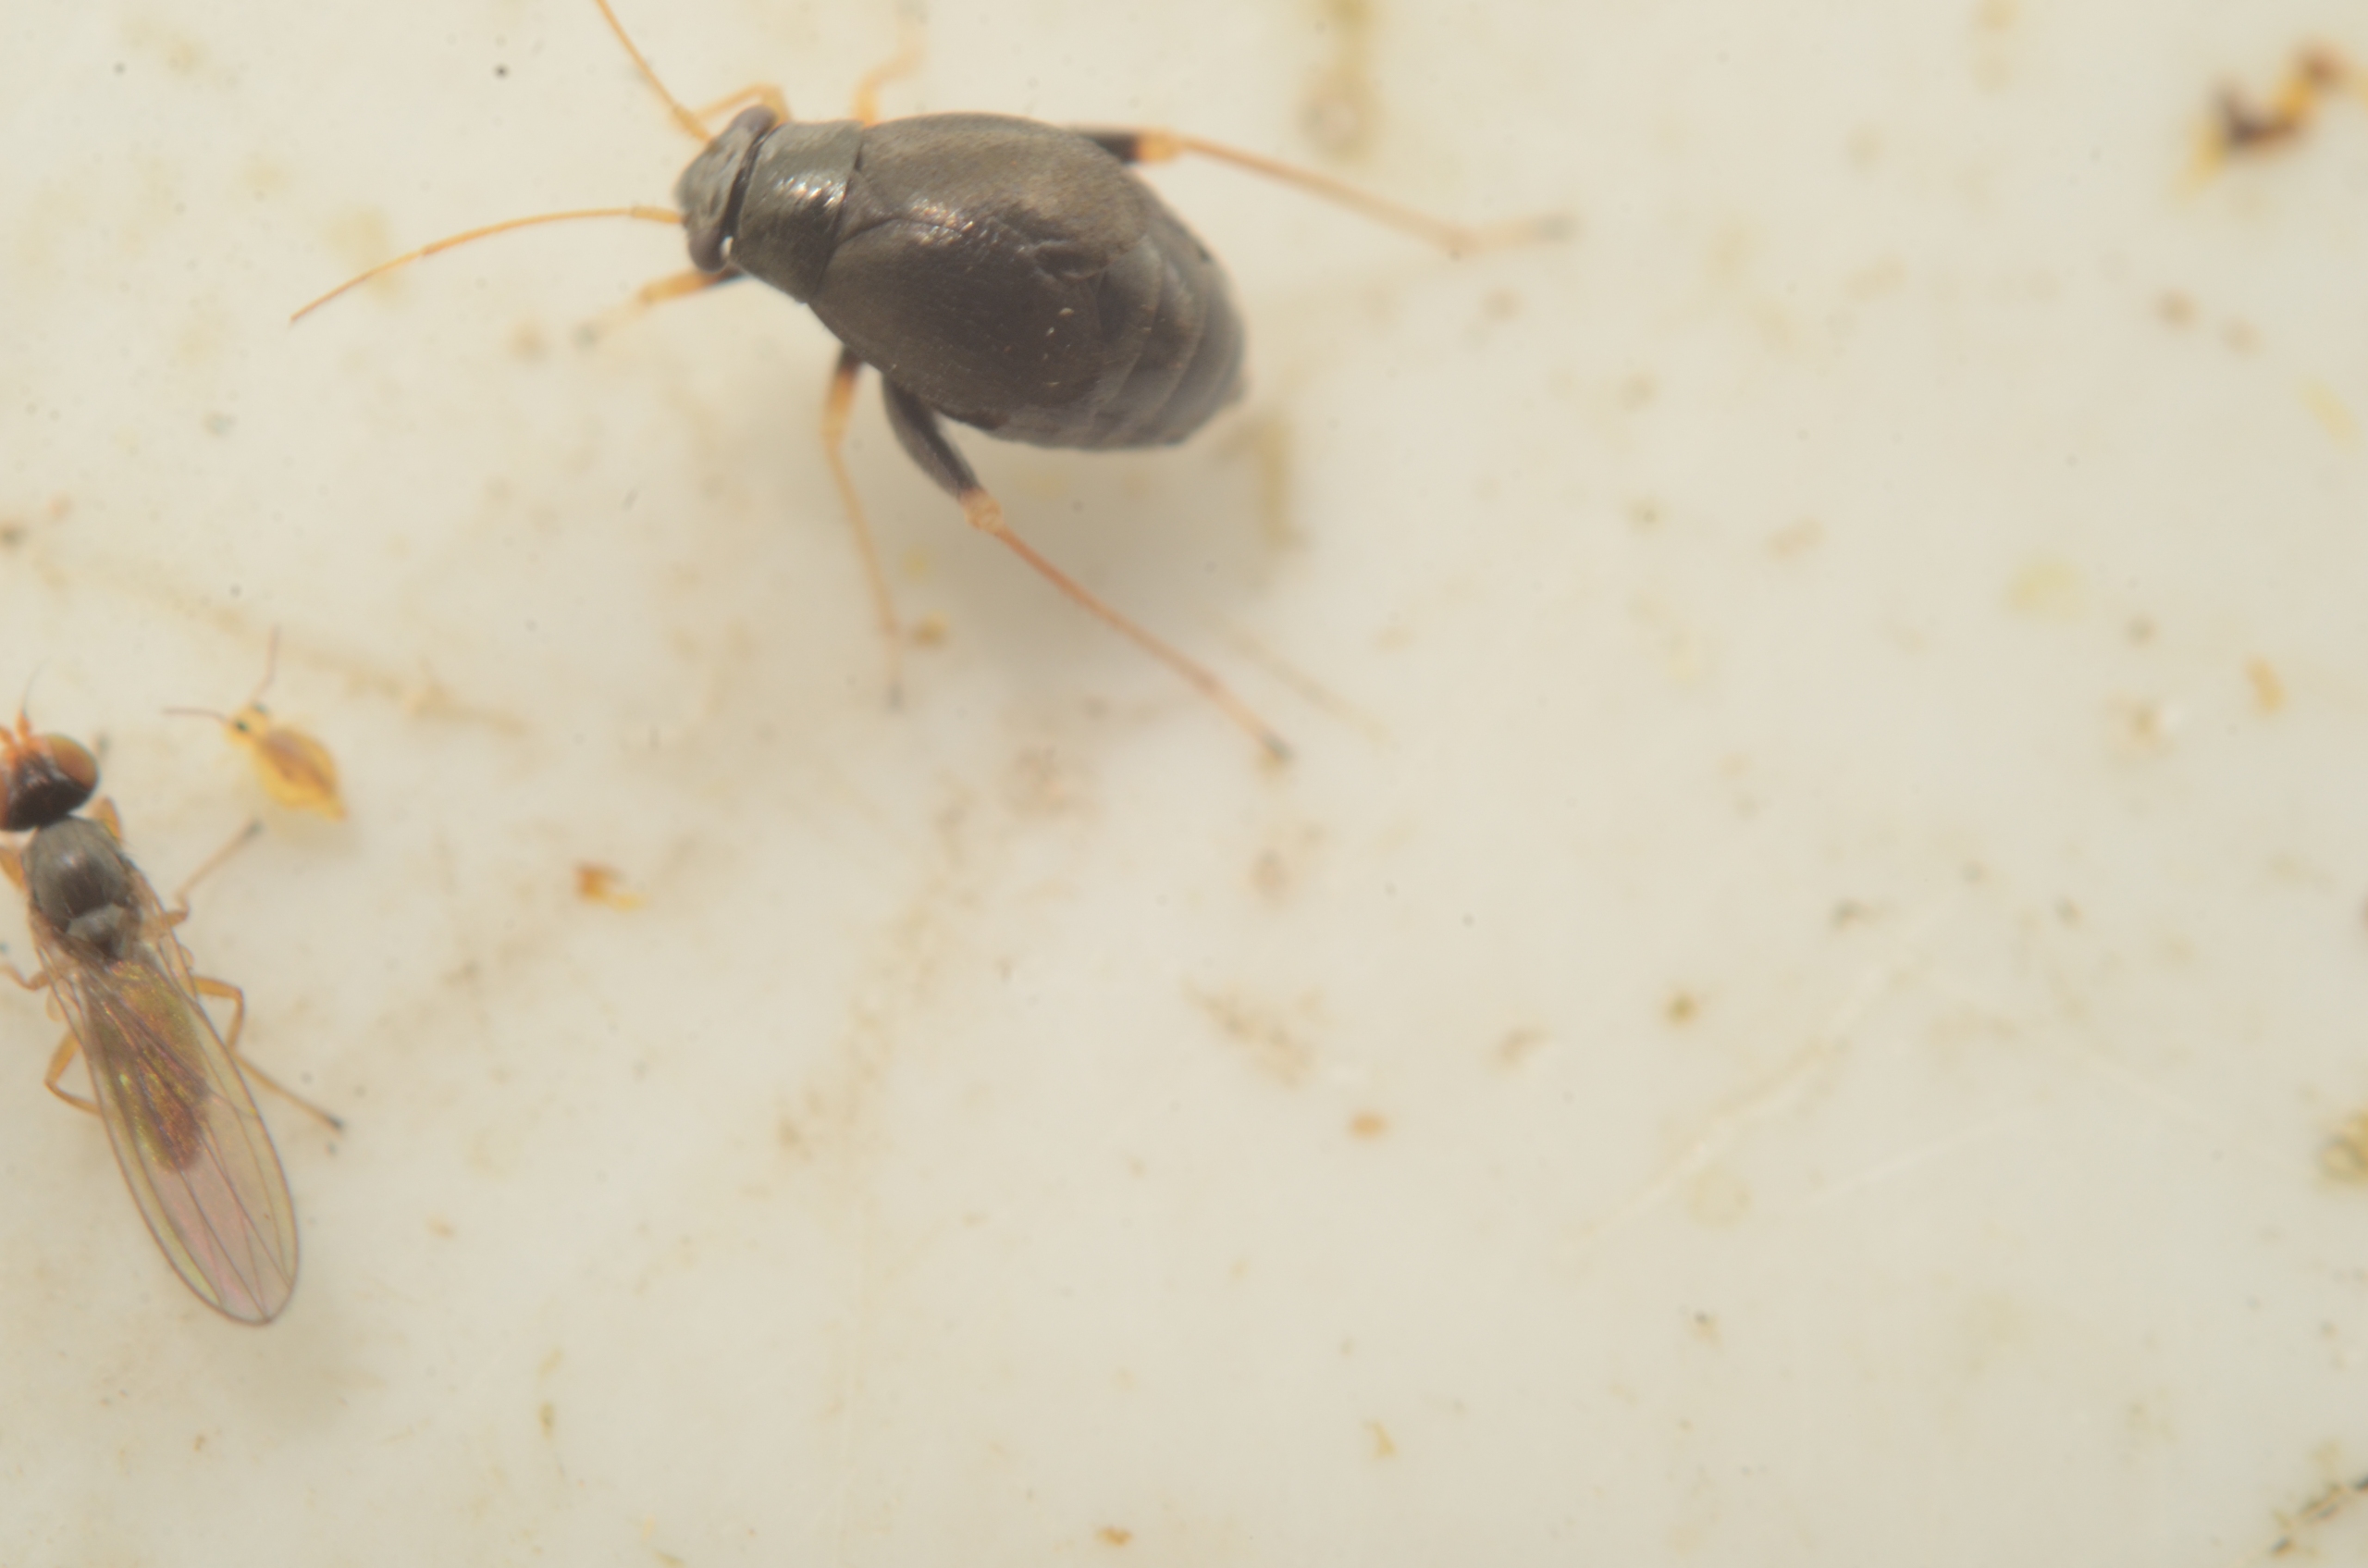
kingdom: Animalia
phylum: Arthropoda
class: Insecta
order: Hemiptera
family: Miridae
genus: Halticus
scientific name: Halticus apterus
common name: Kløvertæge
